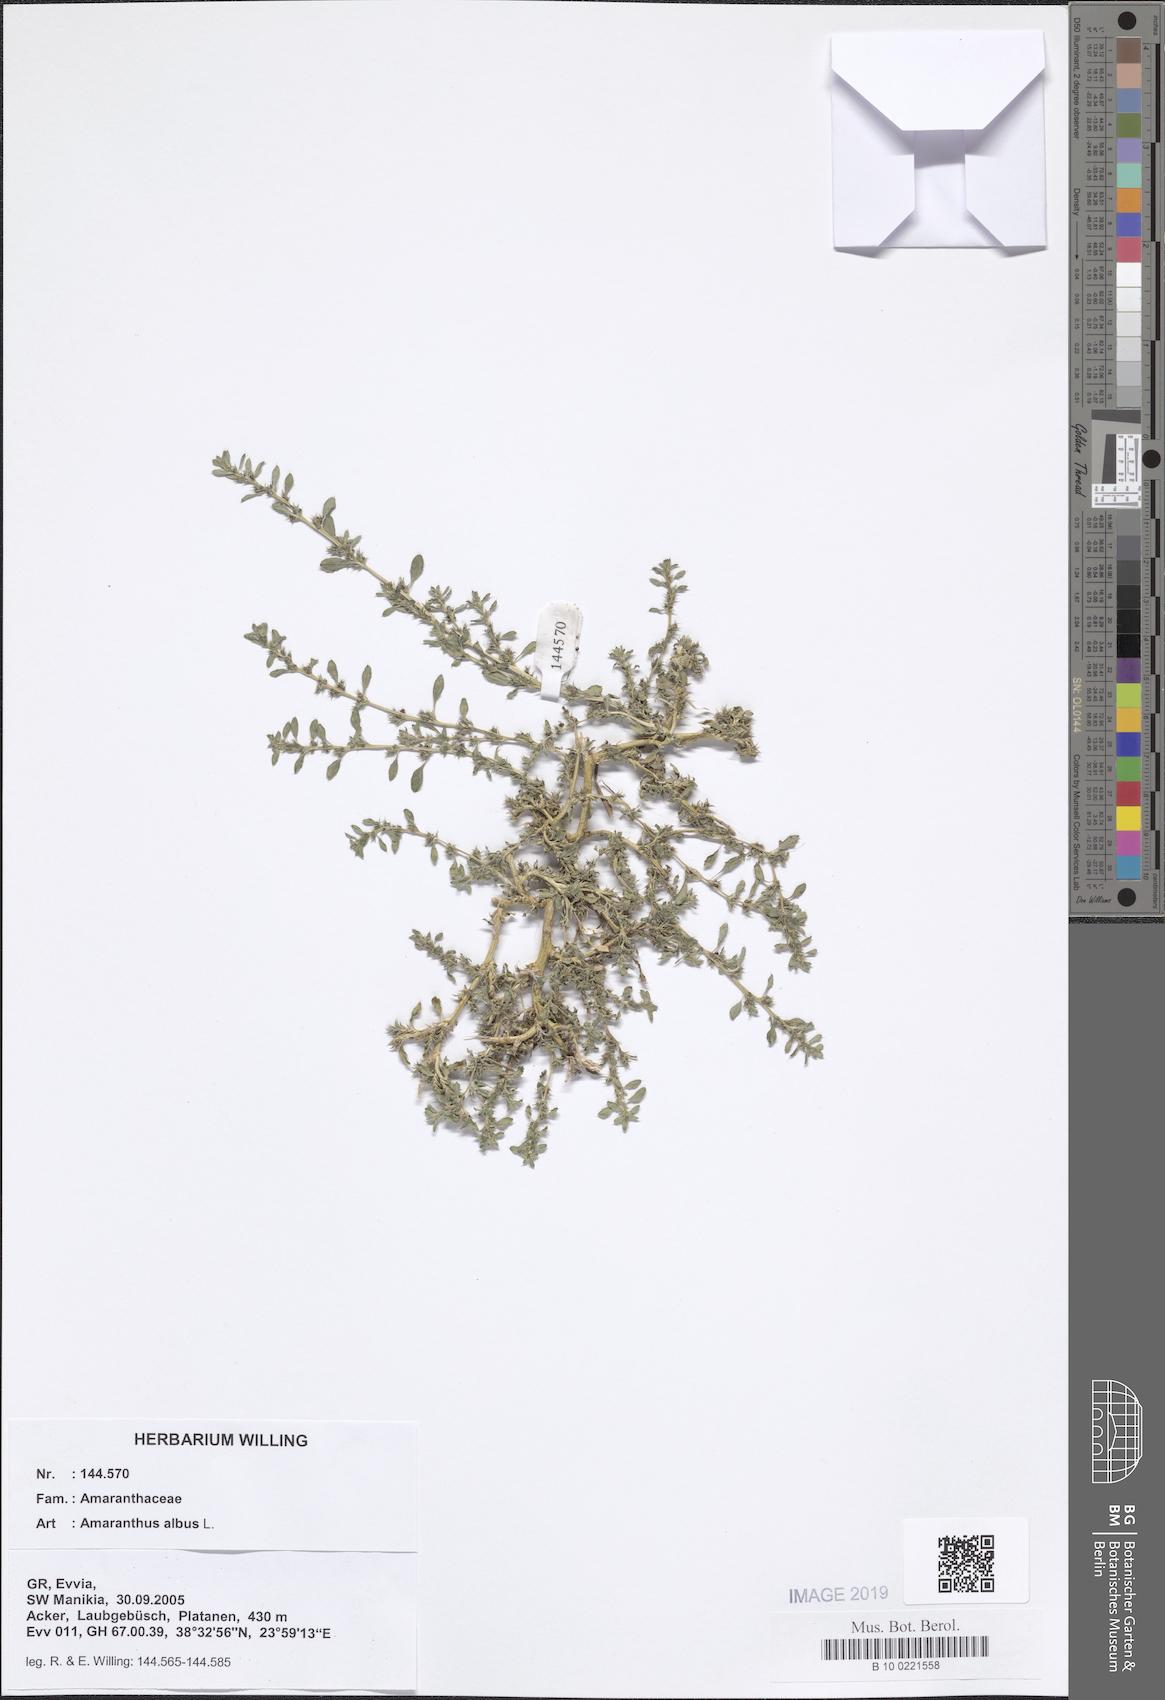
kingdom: Plantae
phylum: Tracheophyta
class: Magnoliopsida
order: Caryophyllales
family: Amaranthaceae
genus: Amaranthus
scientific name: Amaranthus albus
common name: White pigweed
